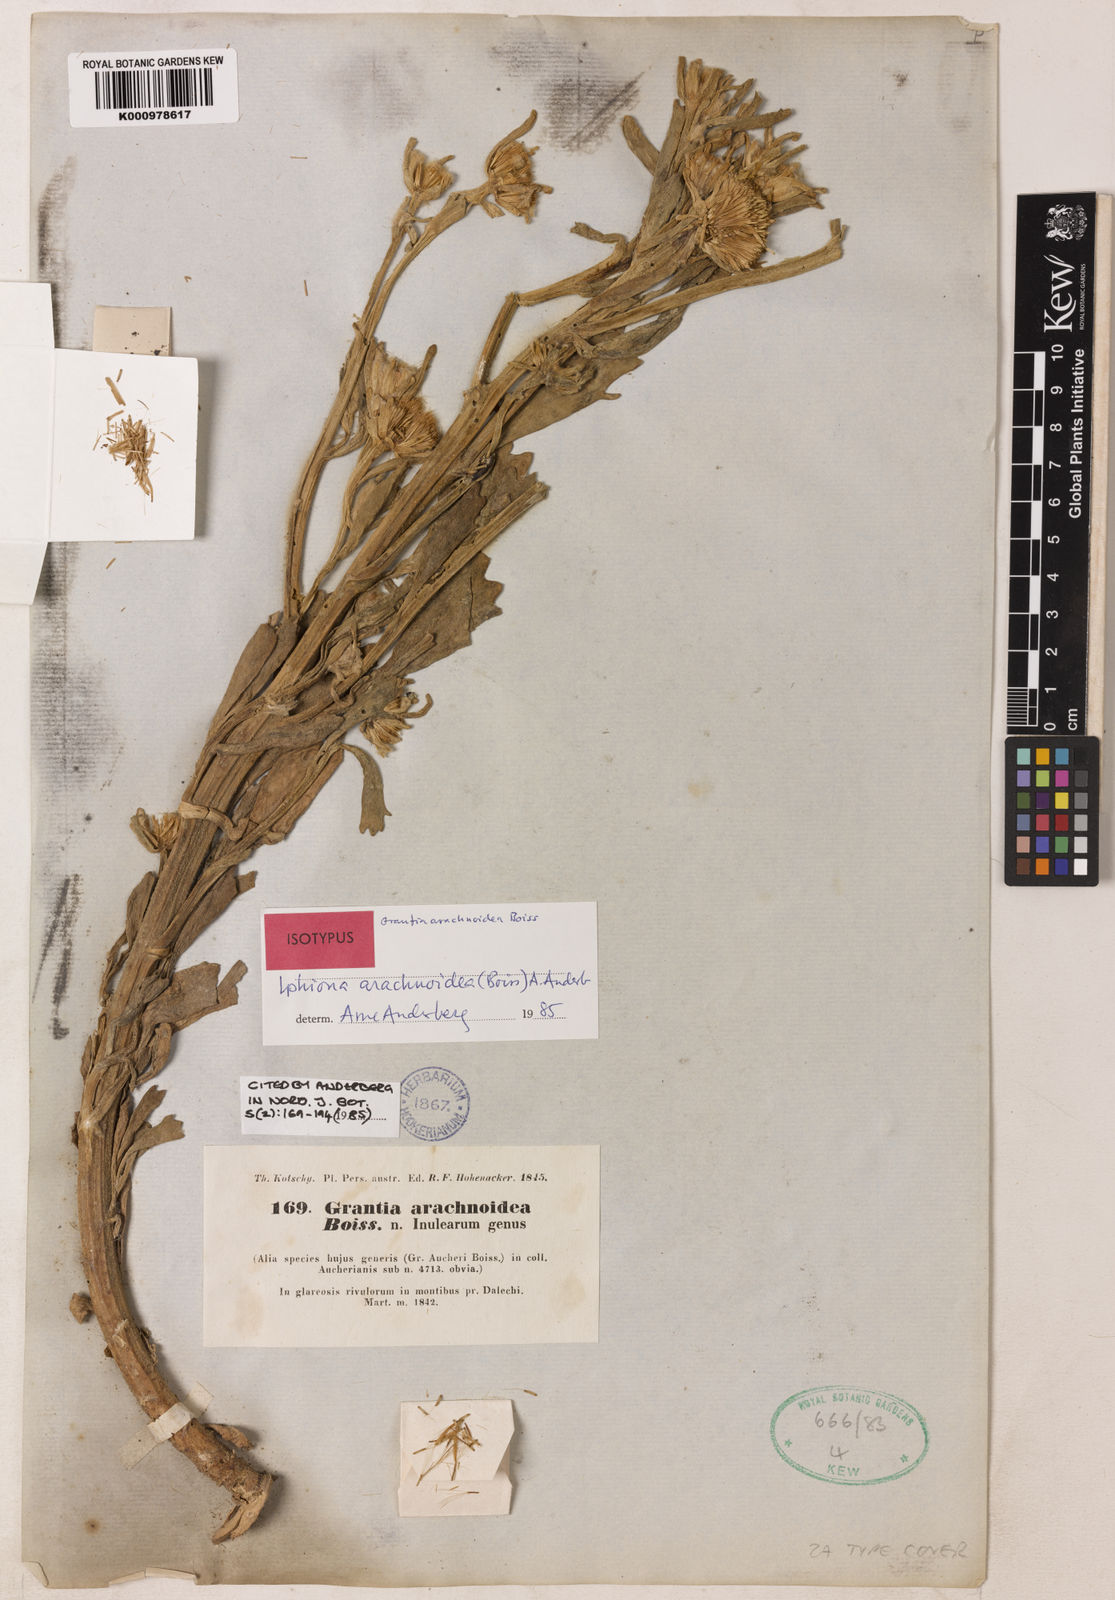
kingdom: Plantae
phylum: Tracheophyta
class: Magnoliopsida
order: Asterales
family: Asteraceae
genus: Iphiona
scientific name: Iphiona arachnoidea
